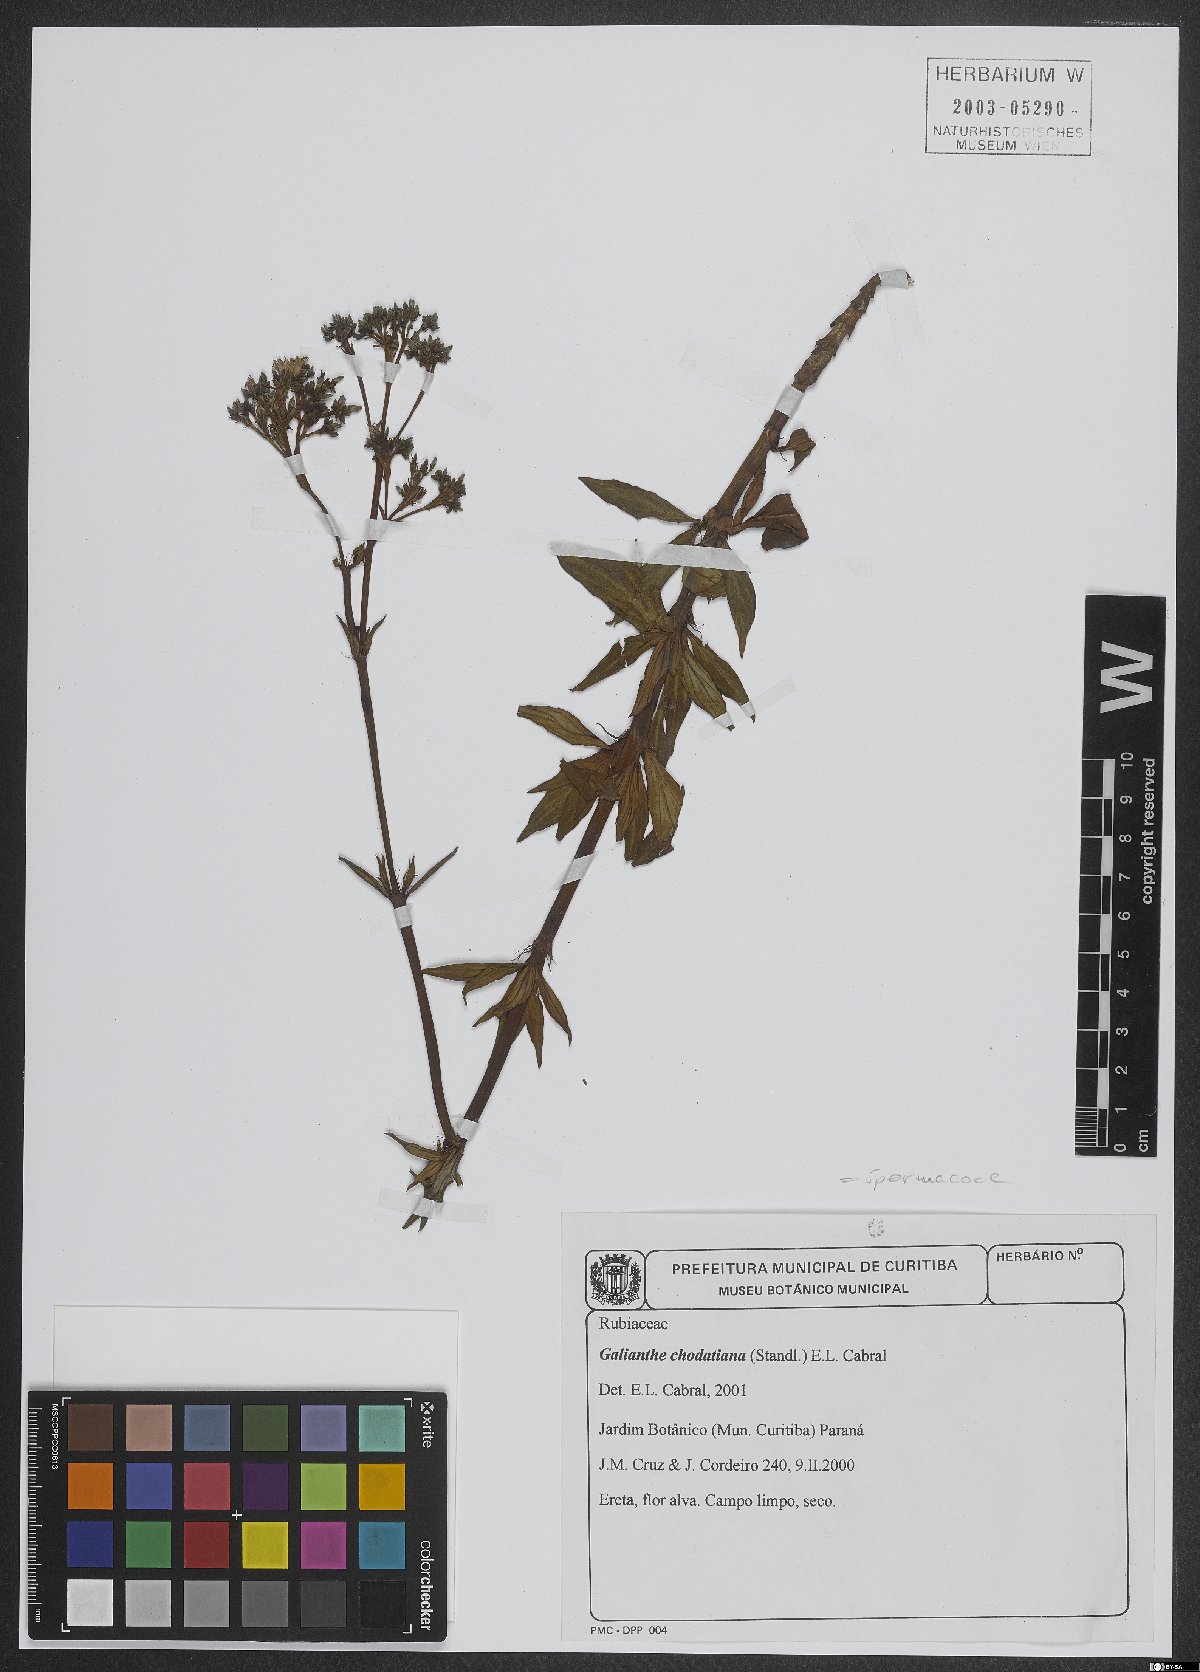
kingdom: Plantae
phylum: Tracheophyta
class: Magnoliopsida
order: Gentianales
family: Rubiaceae
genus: Galianthe
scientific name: Galianthe chodatiana
